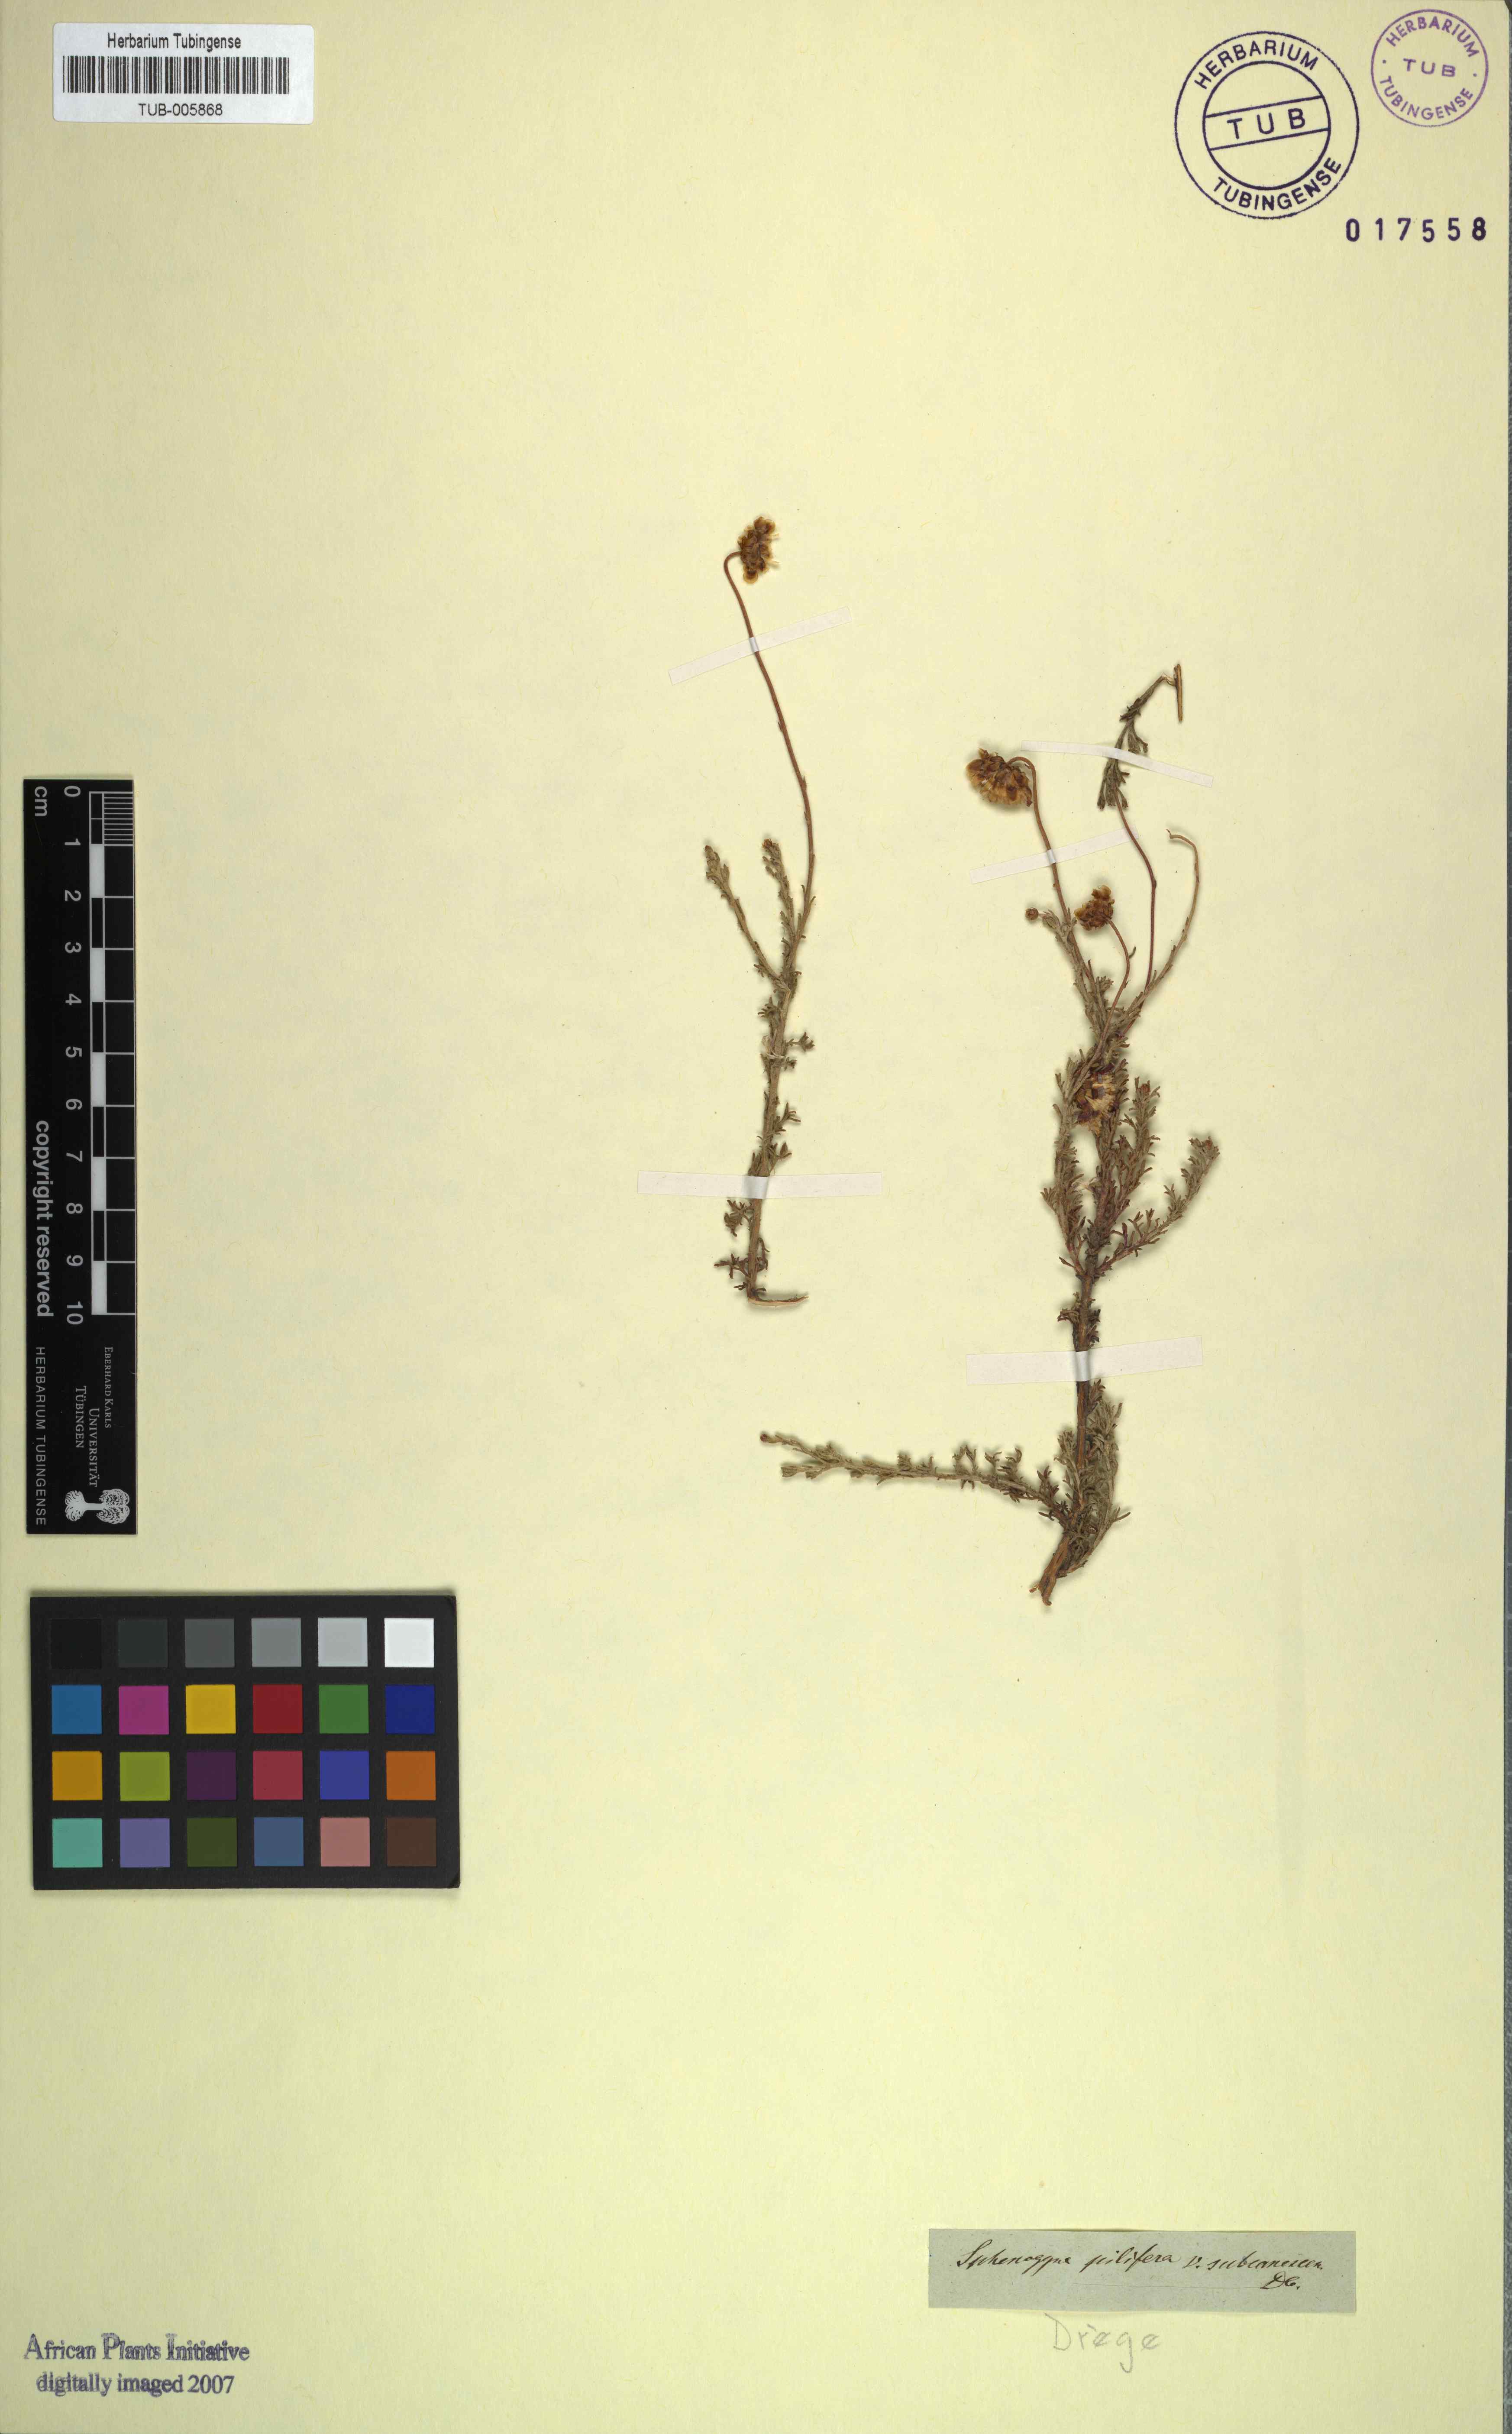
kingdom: Plantae
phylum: Tracheophyta
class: Magnoliopsida
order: Asterales
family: Asteraceae
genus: Ursinia
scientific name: Ursinia pilifera
